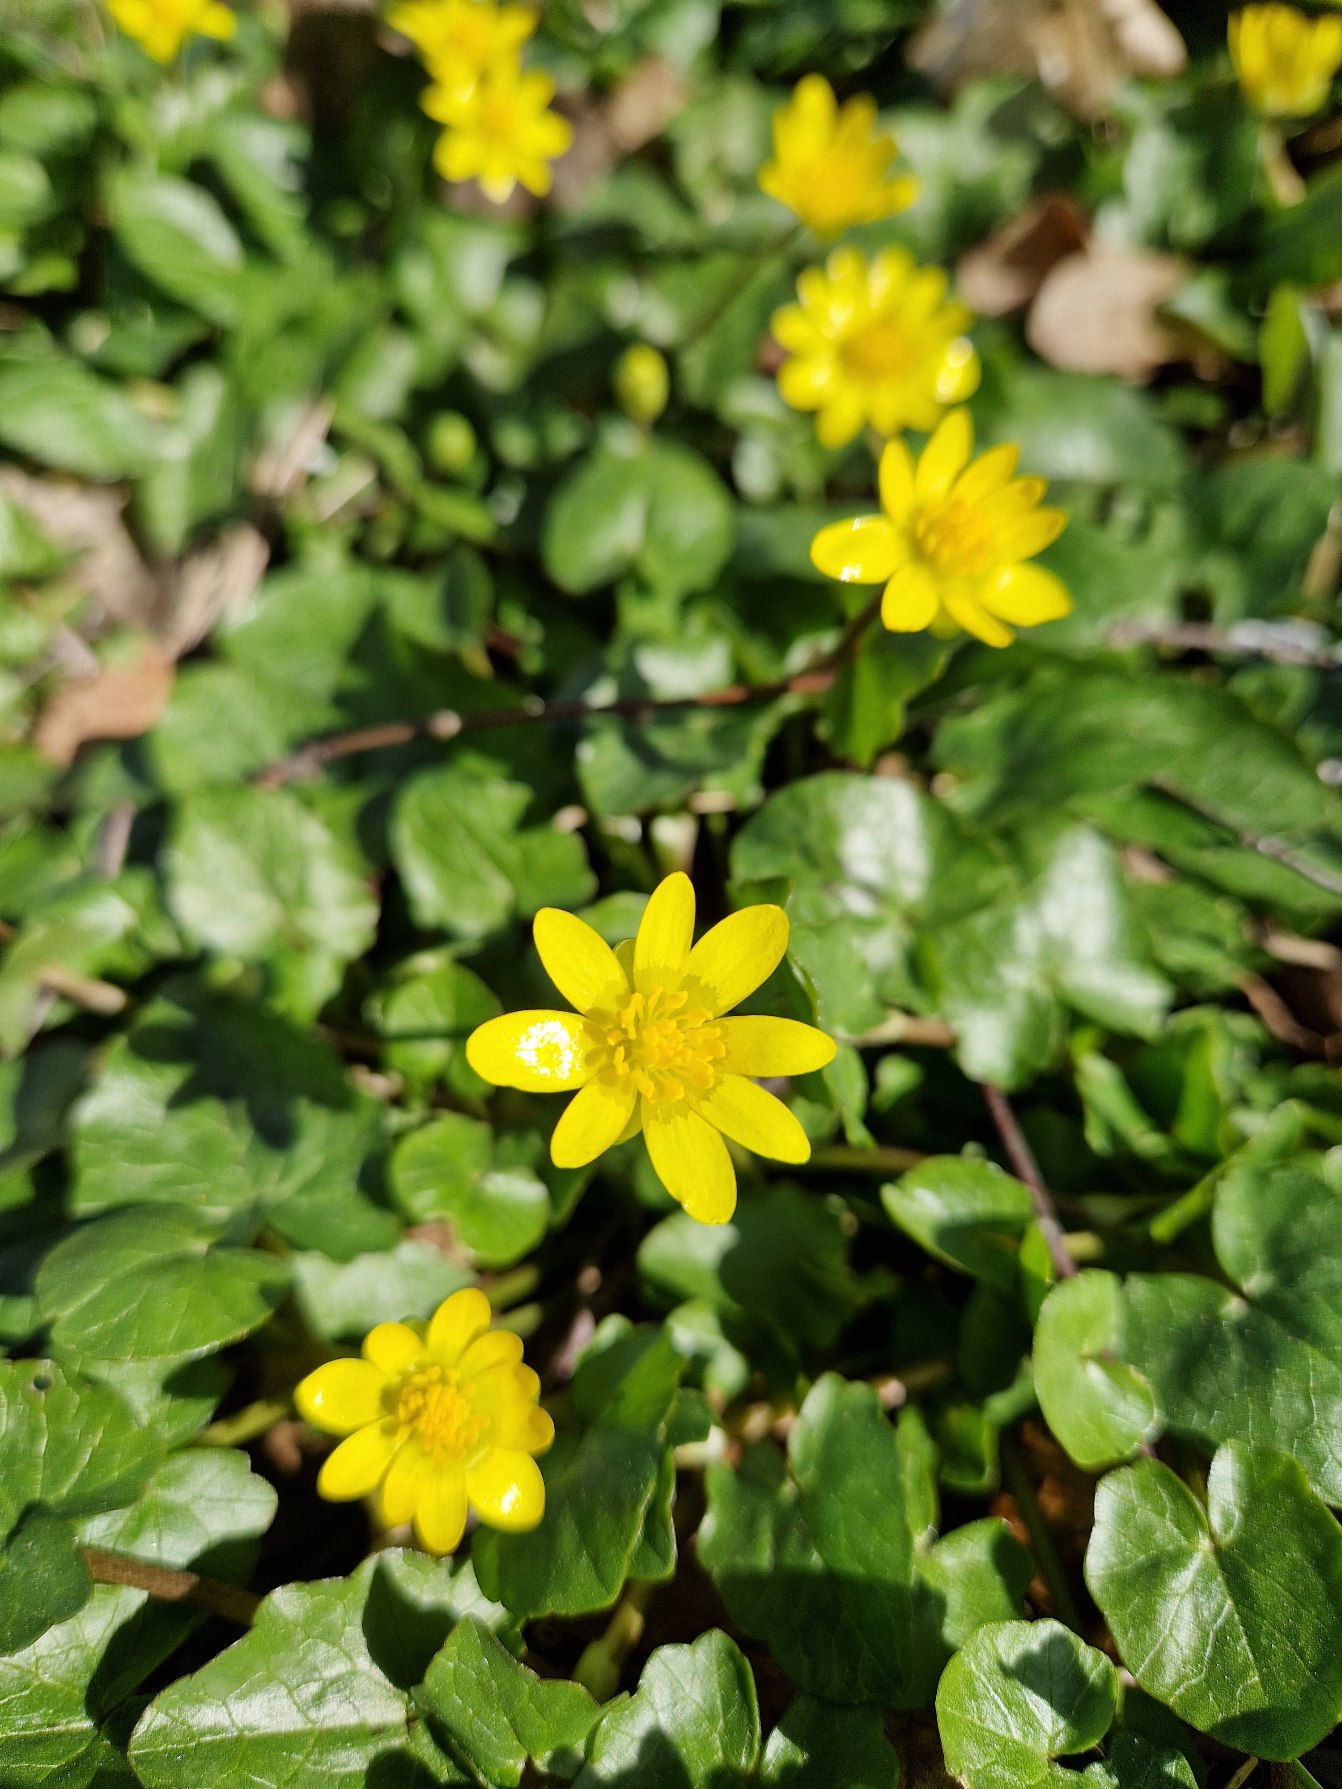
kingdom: Plantae
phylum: Tracheophyta
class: Magnoliopsida
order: Ranunculales
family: Ranunculaceae
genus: Ficaria
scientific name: Ficaria verna
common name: Vorterod
